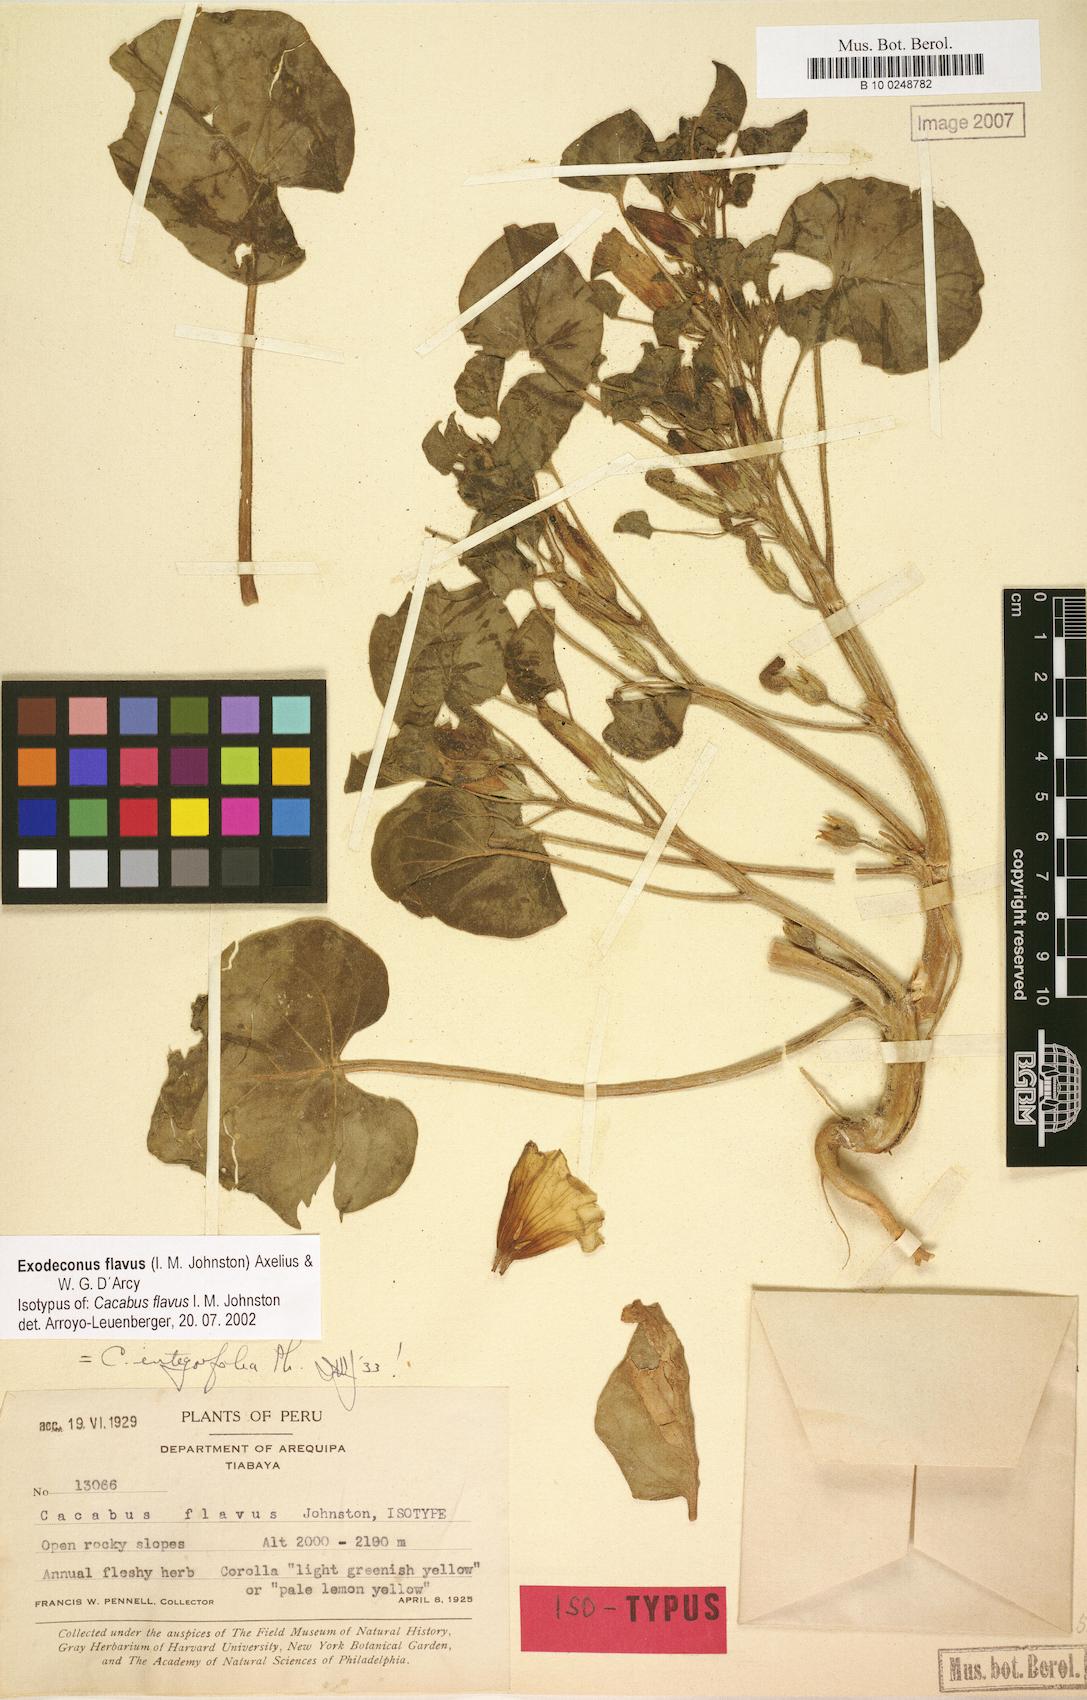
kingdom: Plantae
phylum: Tracheophyta
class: Magnoliopsida
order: Solanales
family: Solanaceae
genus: Exodeconus
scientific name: Exodeconus flavus
